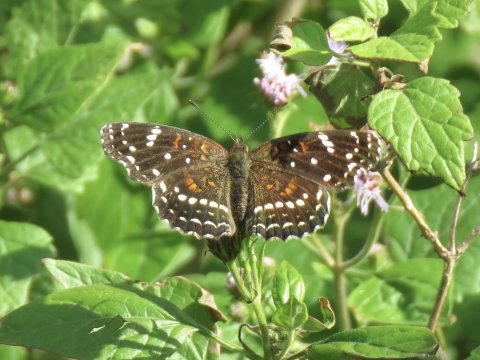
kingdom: Animalia
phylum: Arthropoda
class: Insecta
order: Lepidoptera
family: Nymphalidae
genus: Anthanassa
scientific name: Anthanassa texana
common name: Texan Crescent
